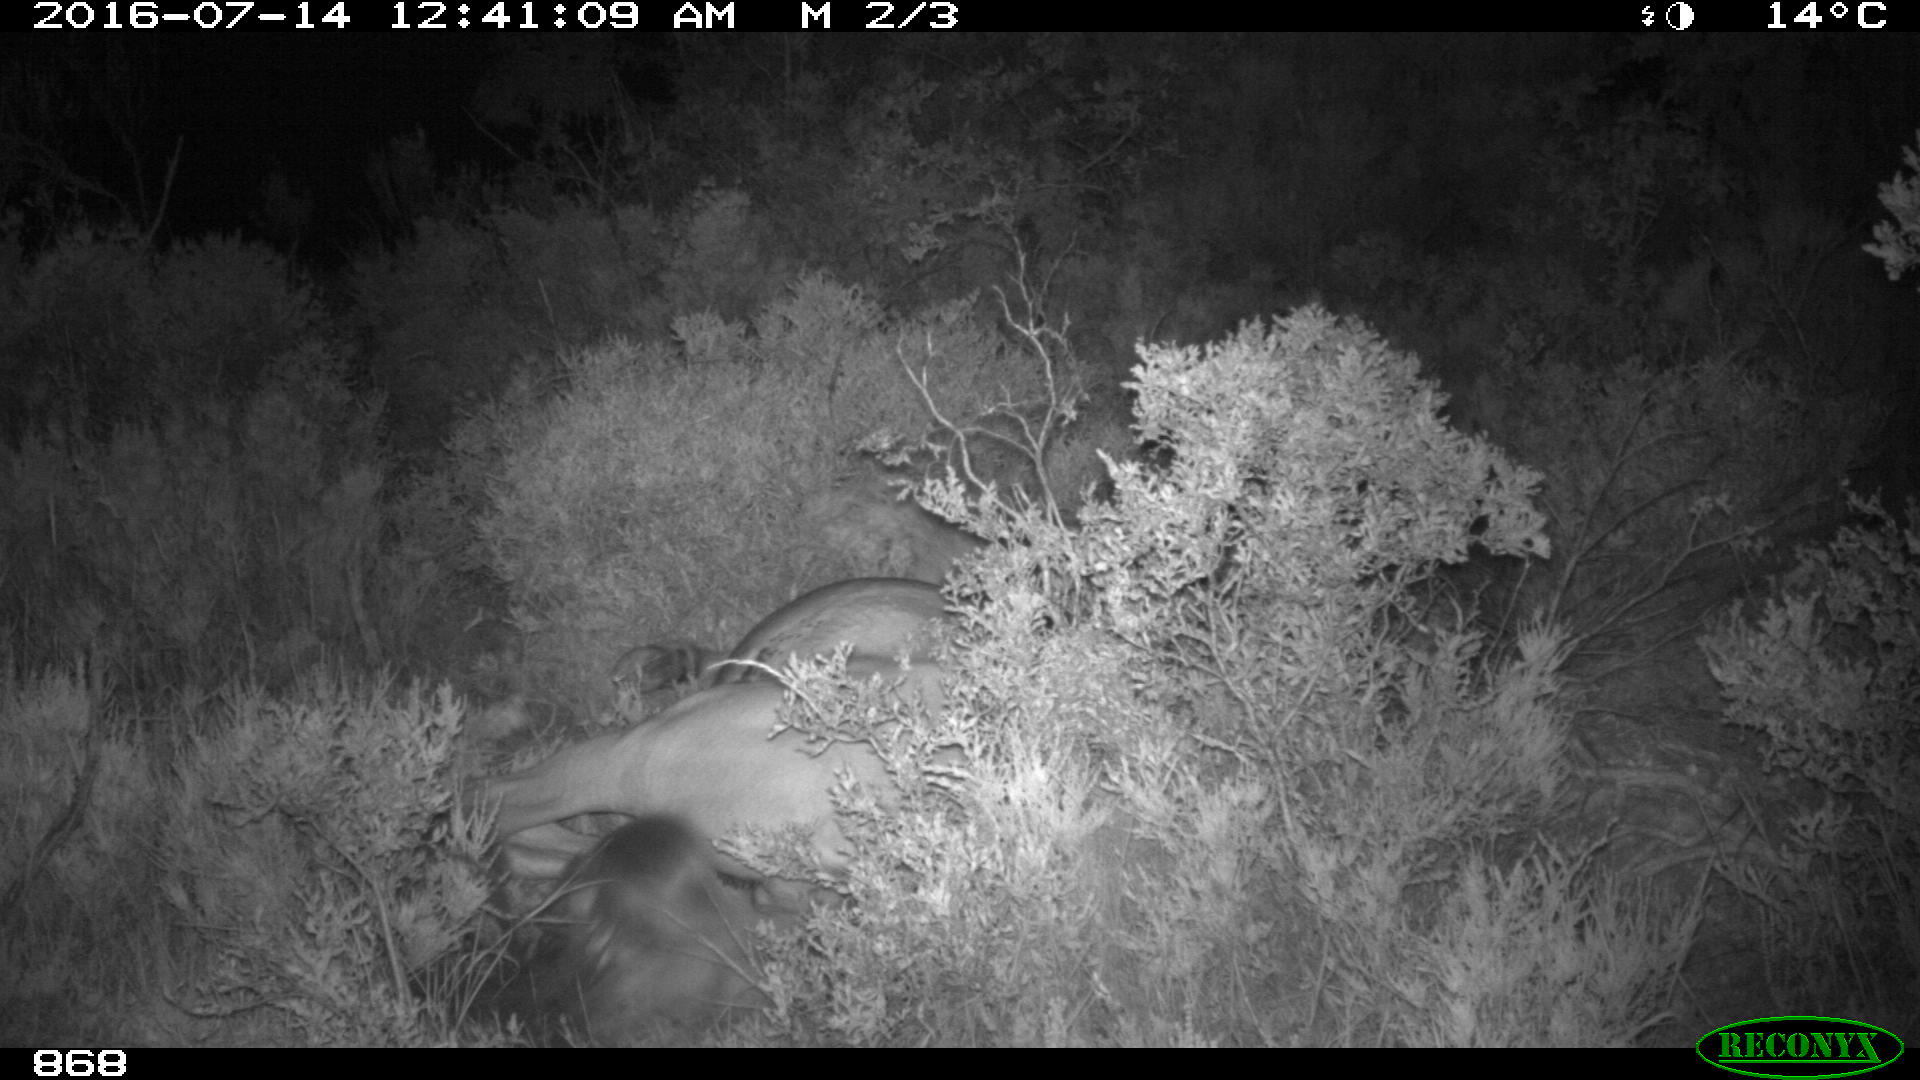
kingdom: Animalia
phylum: Chordata
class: Mammalia
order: Perissodactyla
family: Equidae
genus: Equus
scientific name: Equus caballus
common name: Horse
